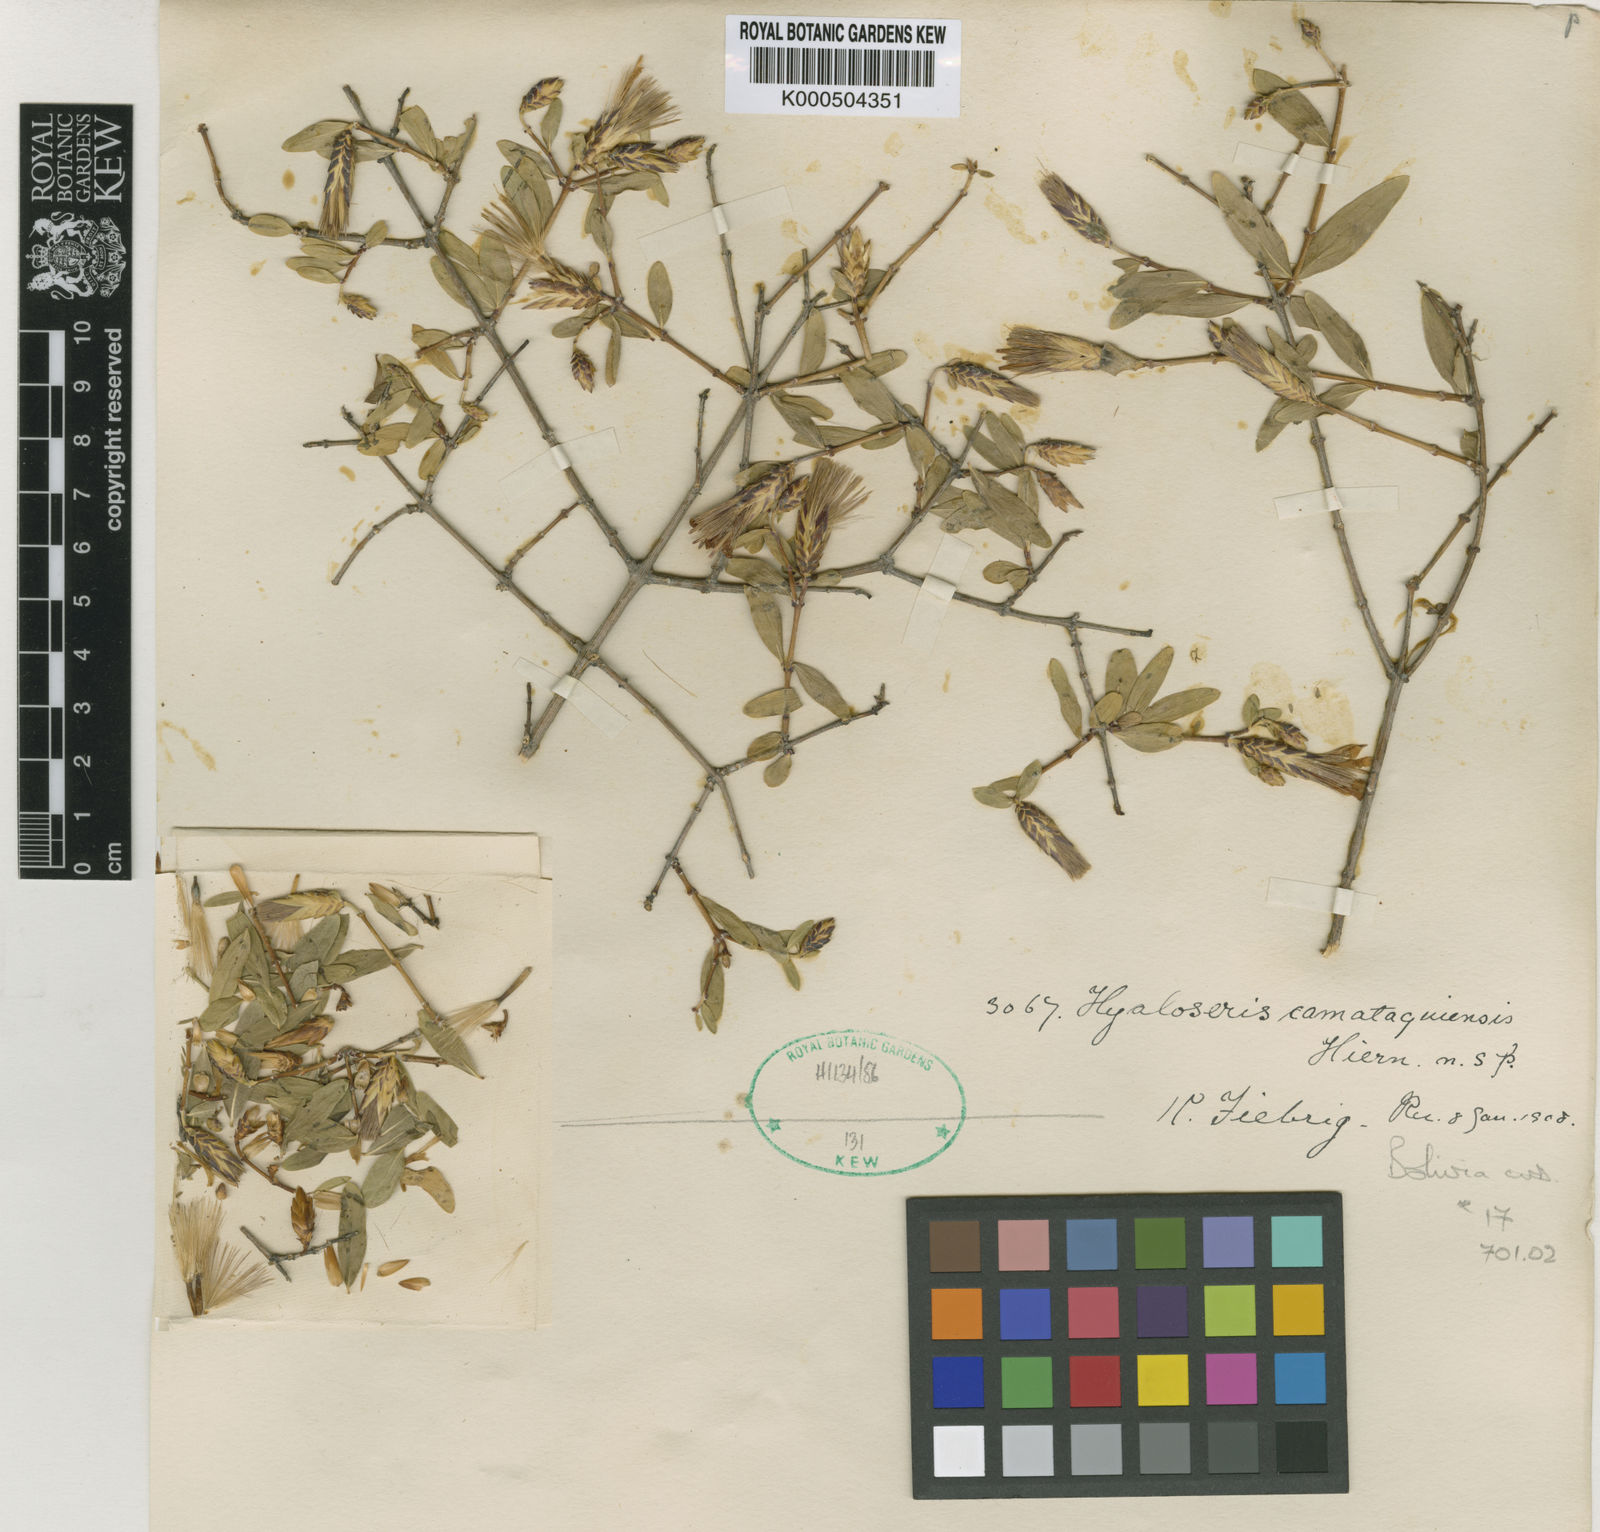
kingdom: Plantae
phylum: Tracheophyta
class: Magnoliopsida
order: Asterales
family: Asteraceae
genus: Hyaloseris
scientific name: Hyaloseris
